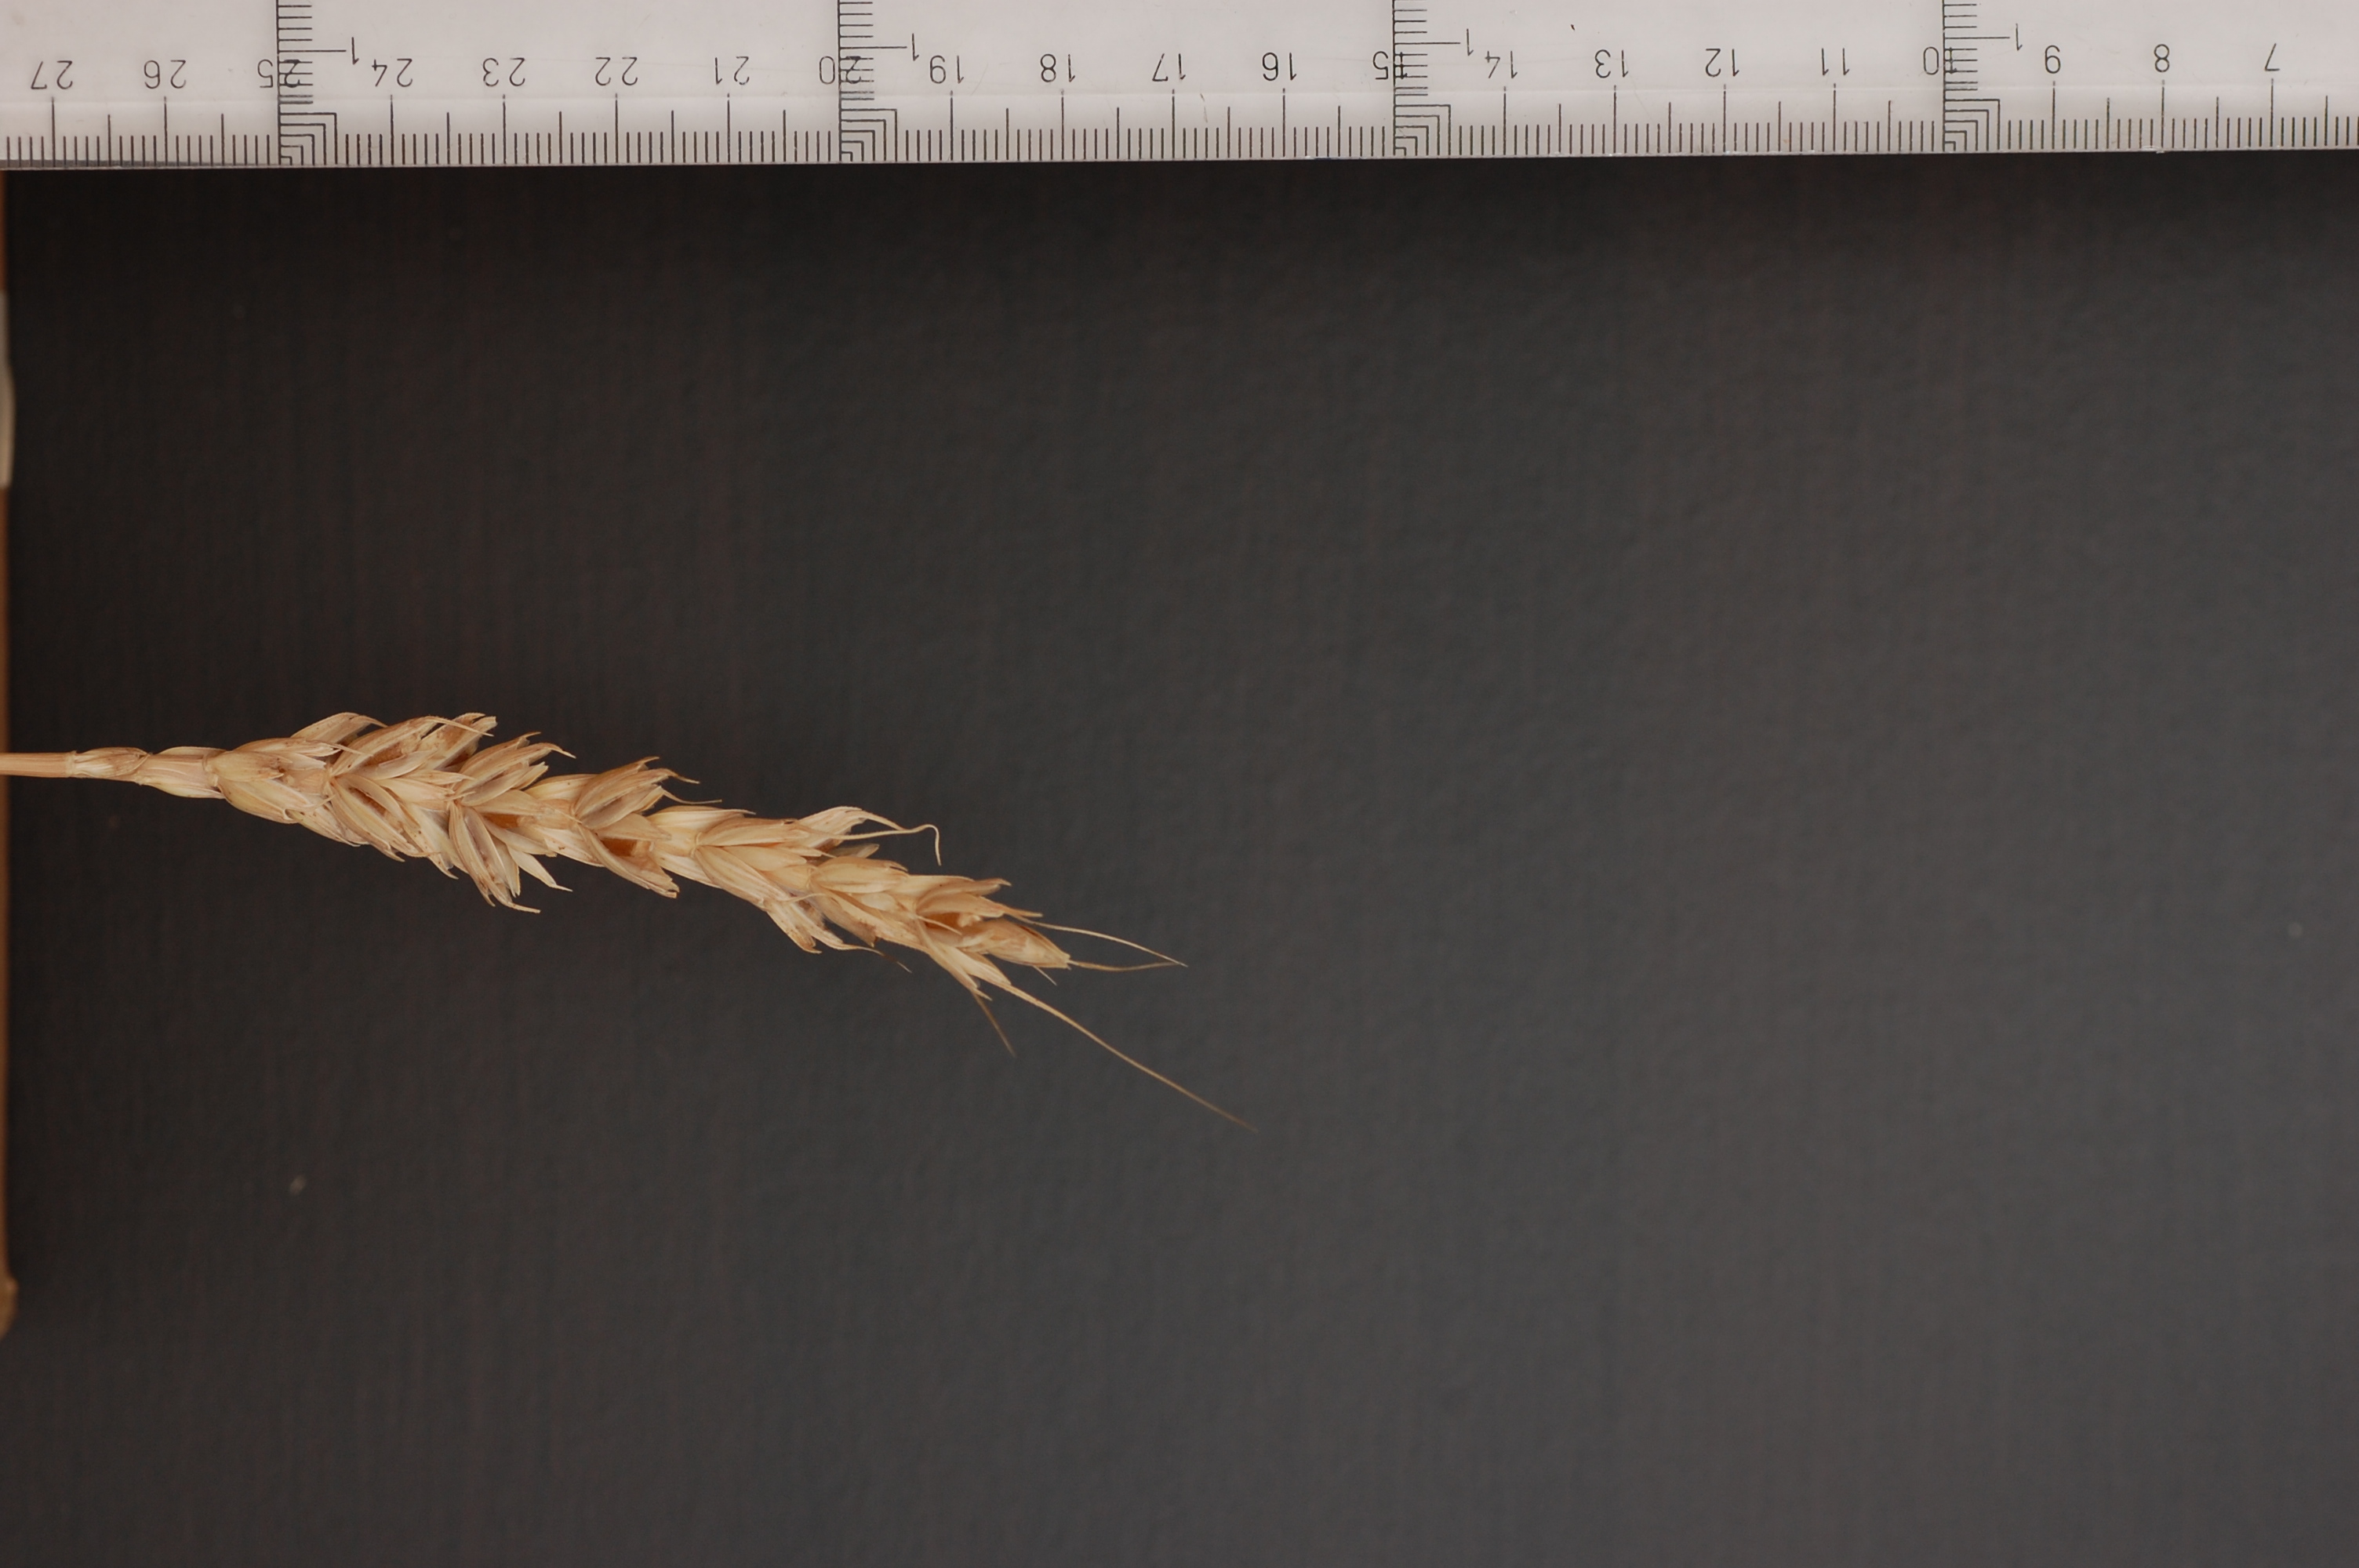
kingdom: Plantae
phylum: Tracheophyta
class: Liliopsida
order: Poales
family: Poaceae
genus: Triticum
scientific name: Triticum aestivum
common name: Common wheat
